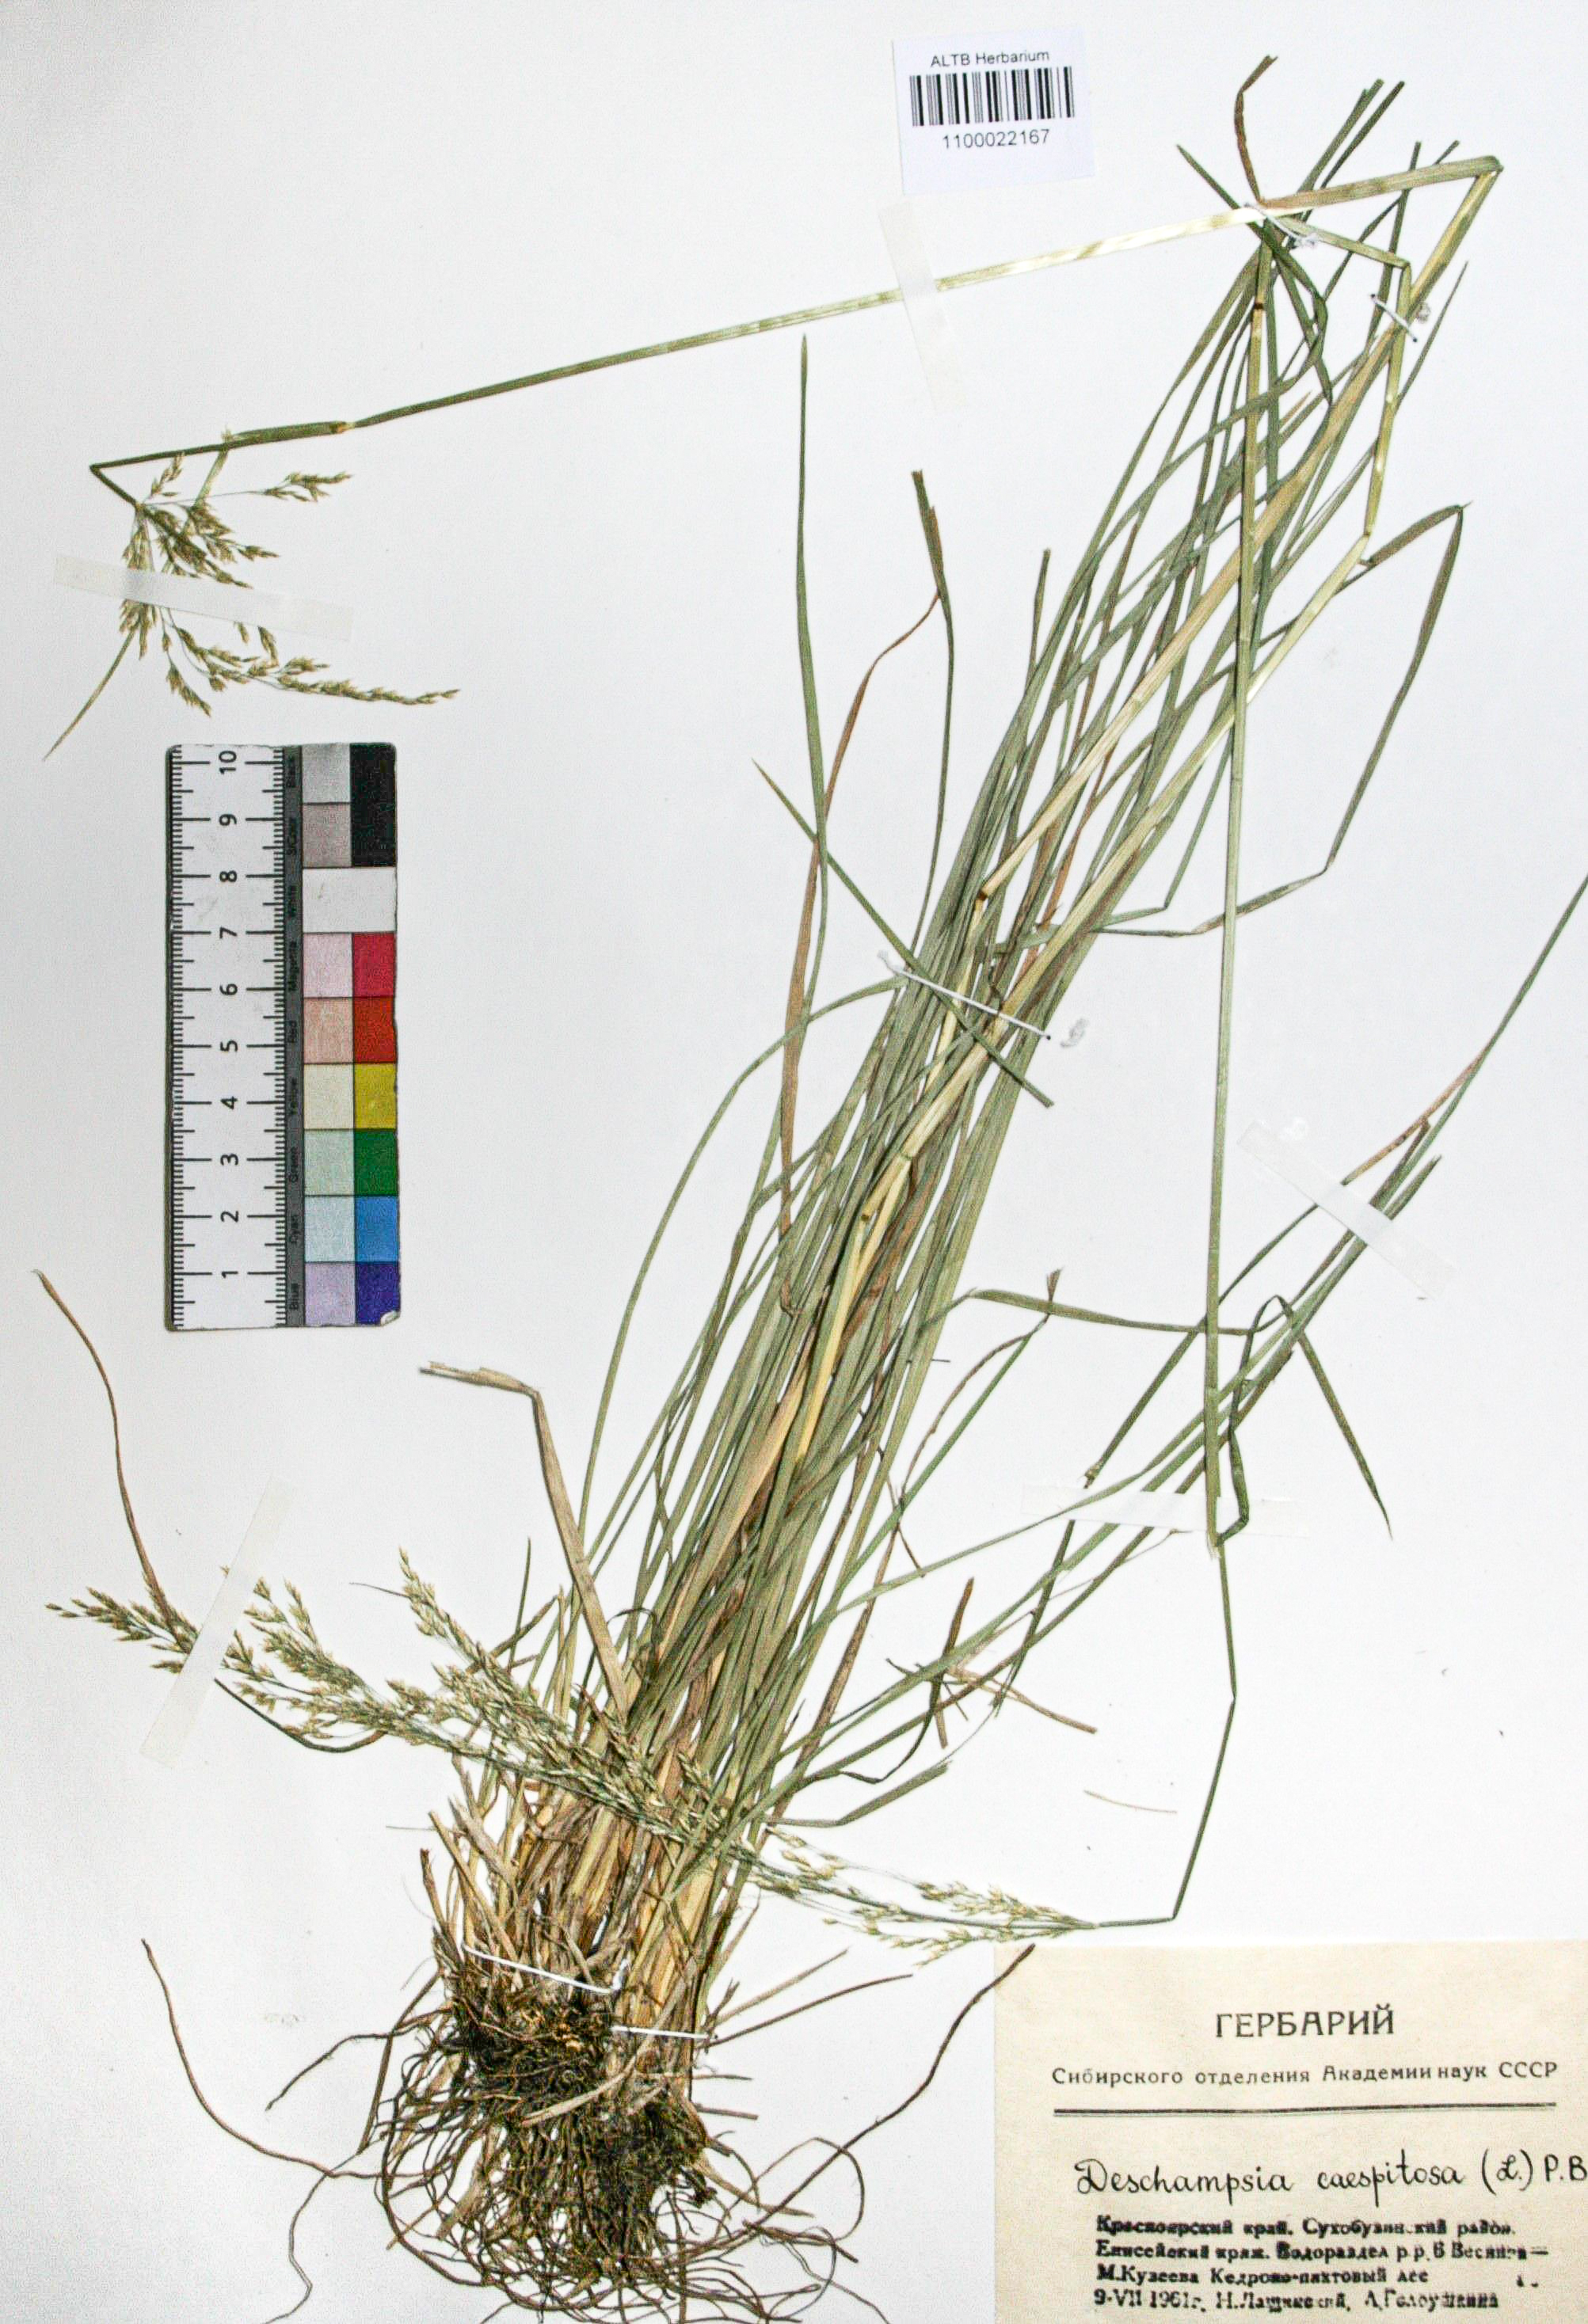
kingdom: Plantae
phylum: Tracheophyta
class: Liliopsida
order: Poales
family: Poaceae
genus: Deschampsia
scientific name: Deschampsia cespitosa
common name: Tufted hair-grass
